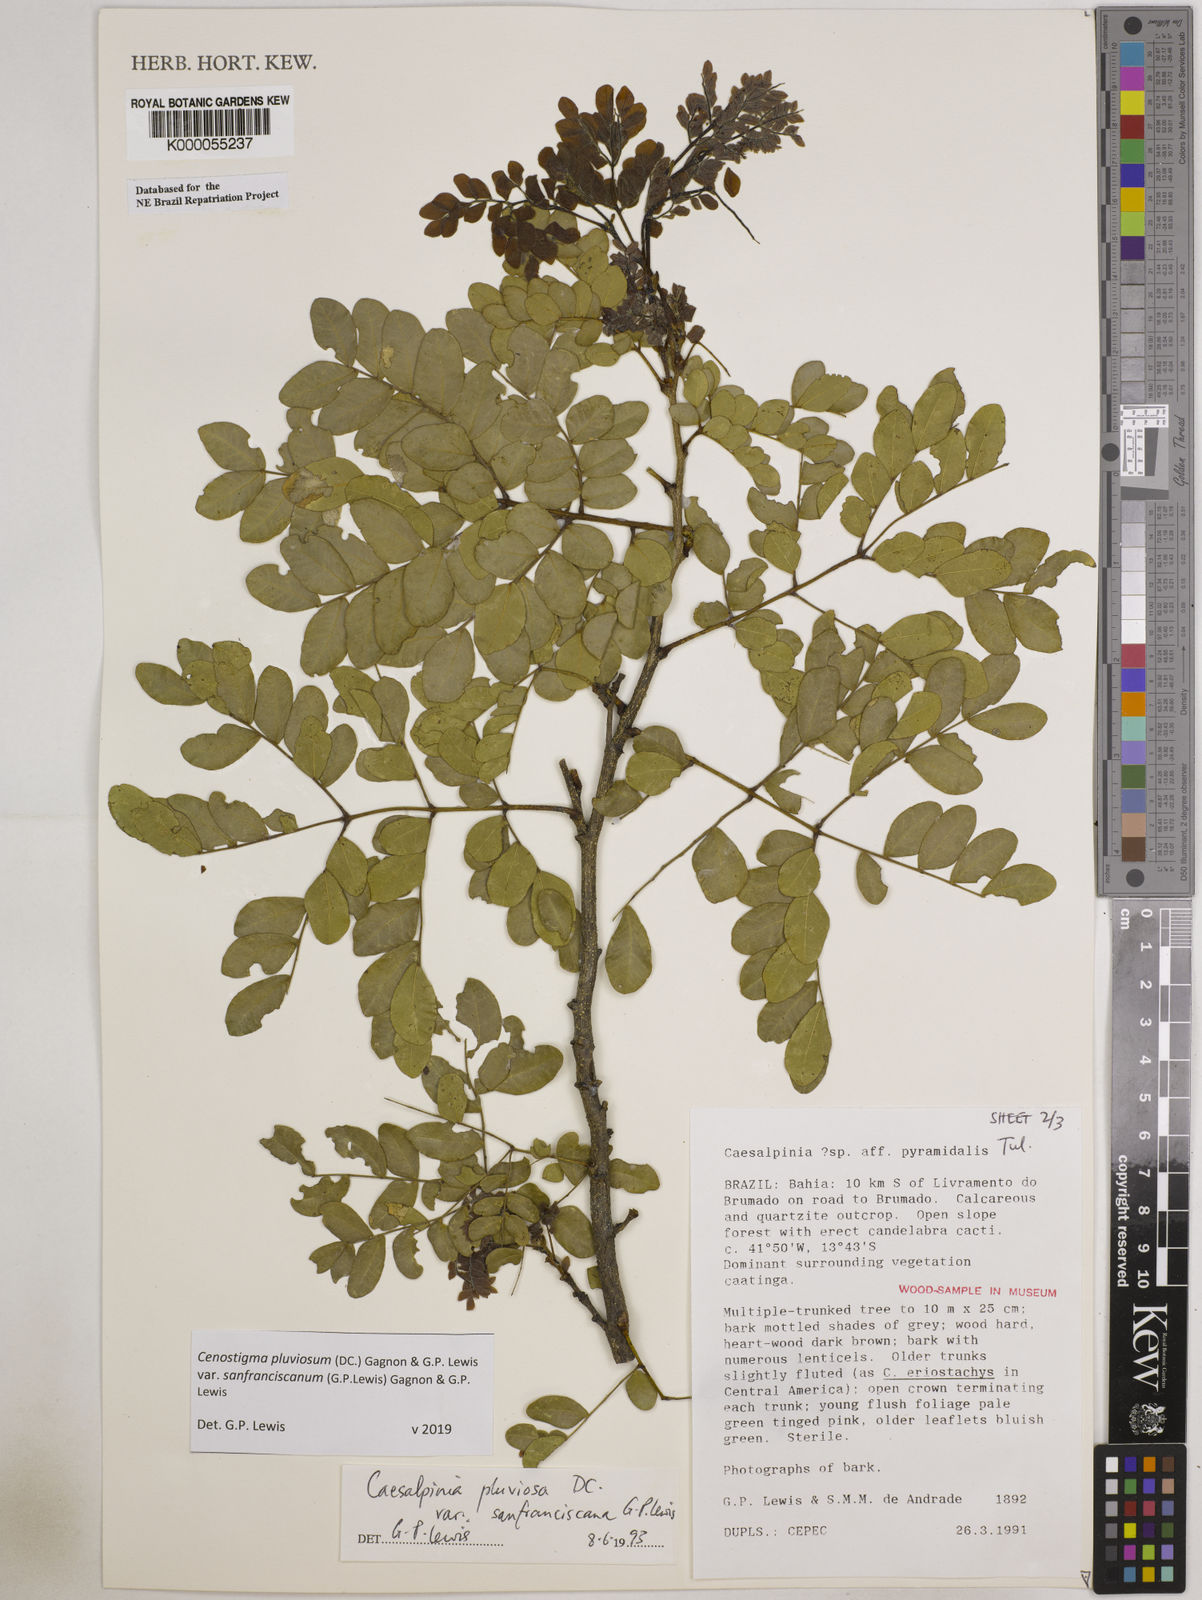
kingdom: Plantae
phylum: Tracheophyta
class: Magnoliopsida
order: Fabales
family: Fabaceae
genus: Cenostigma
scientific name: Cenostigma pluviosum
